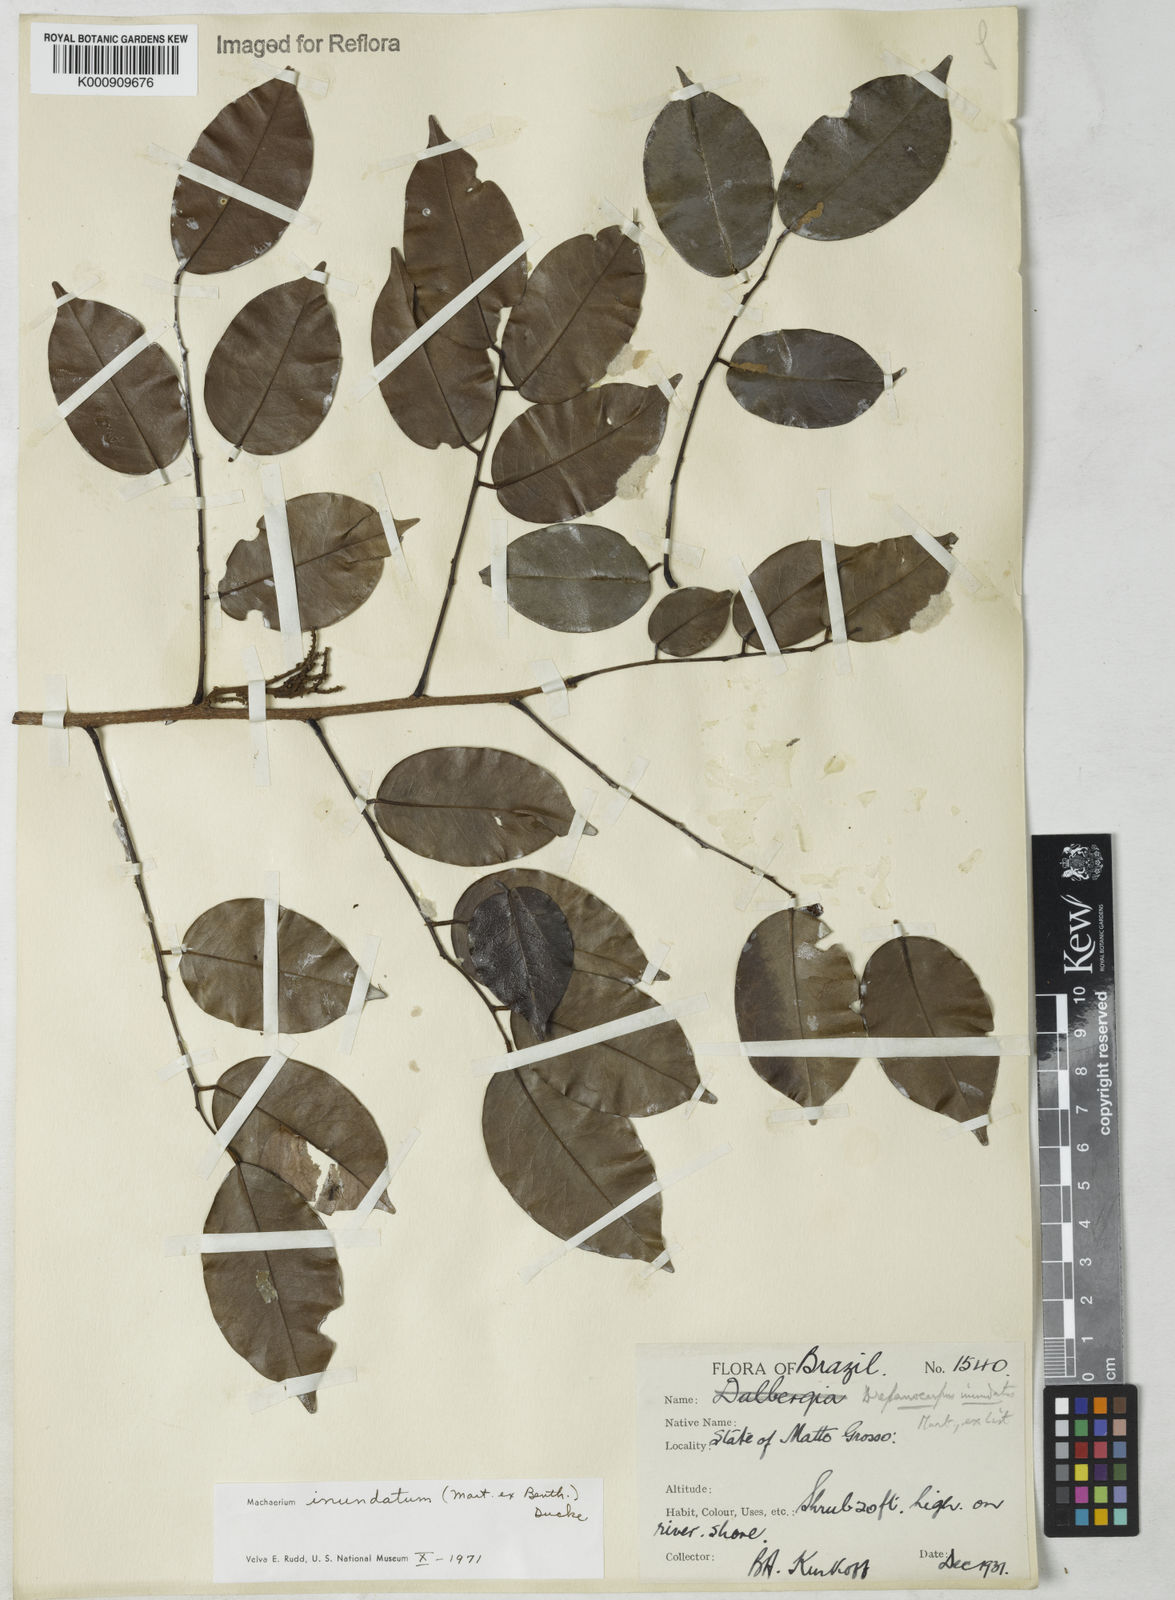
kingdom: Plantae
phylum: Tracheophyta
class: Magnoliopsida
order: Fabales
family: Fabaceae
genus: Machaerium
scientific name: Machaerium inundatum
